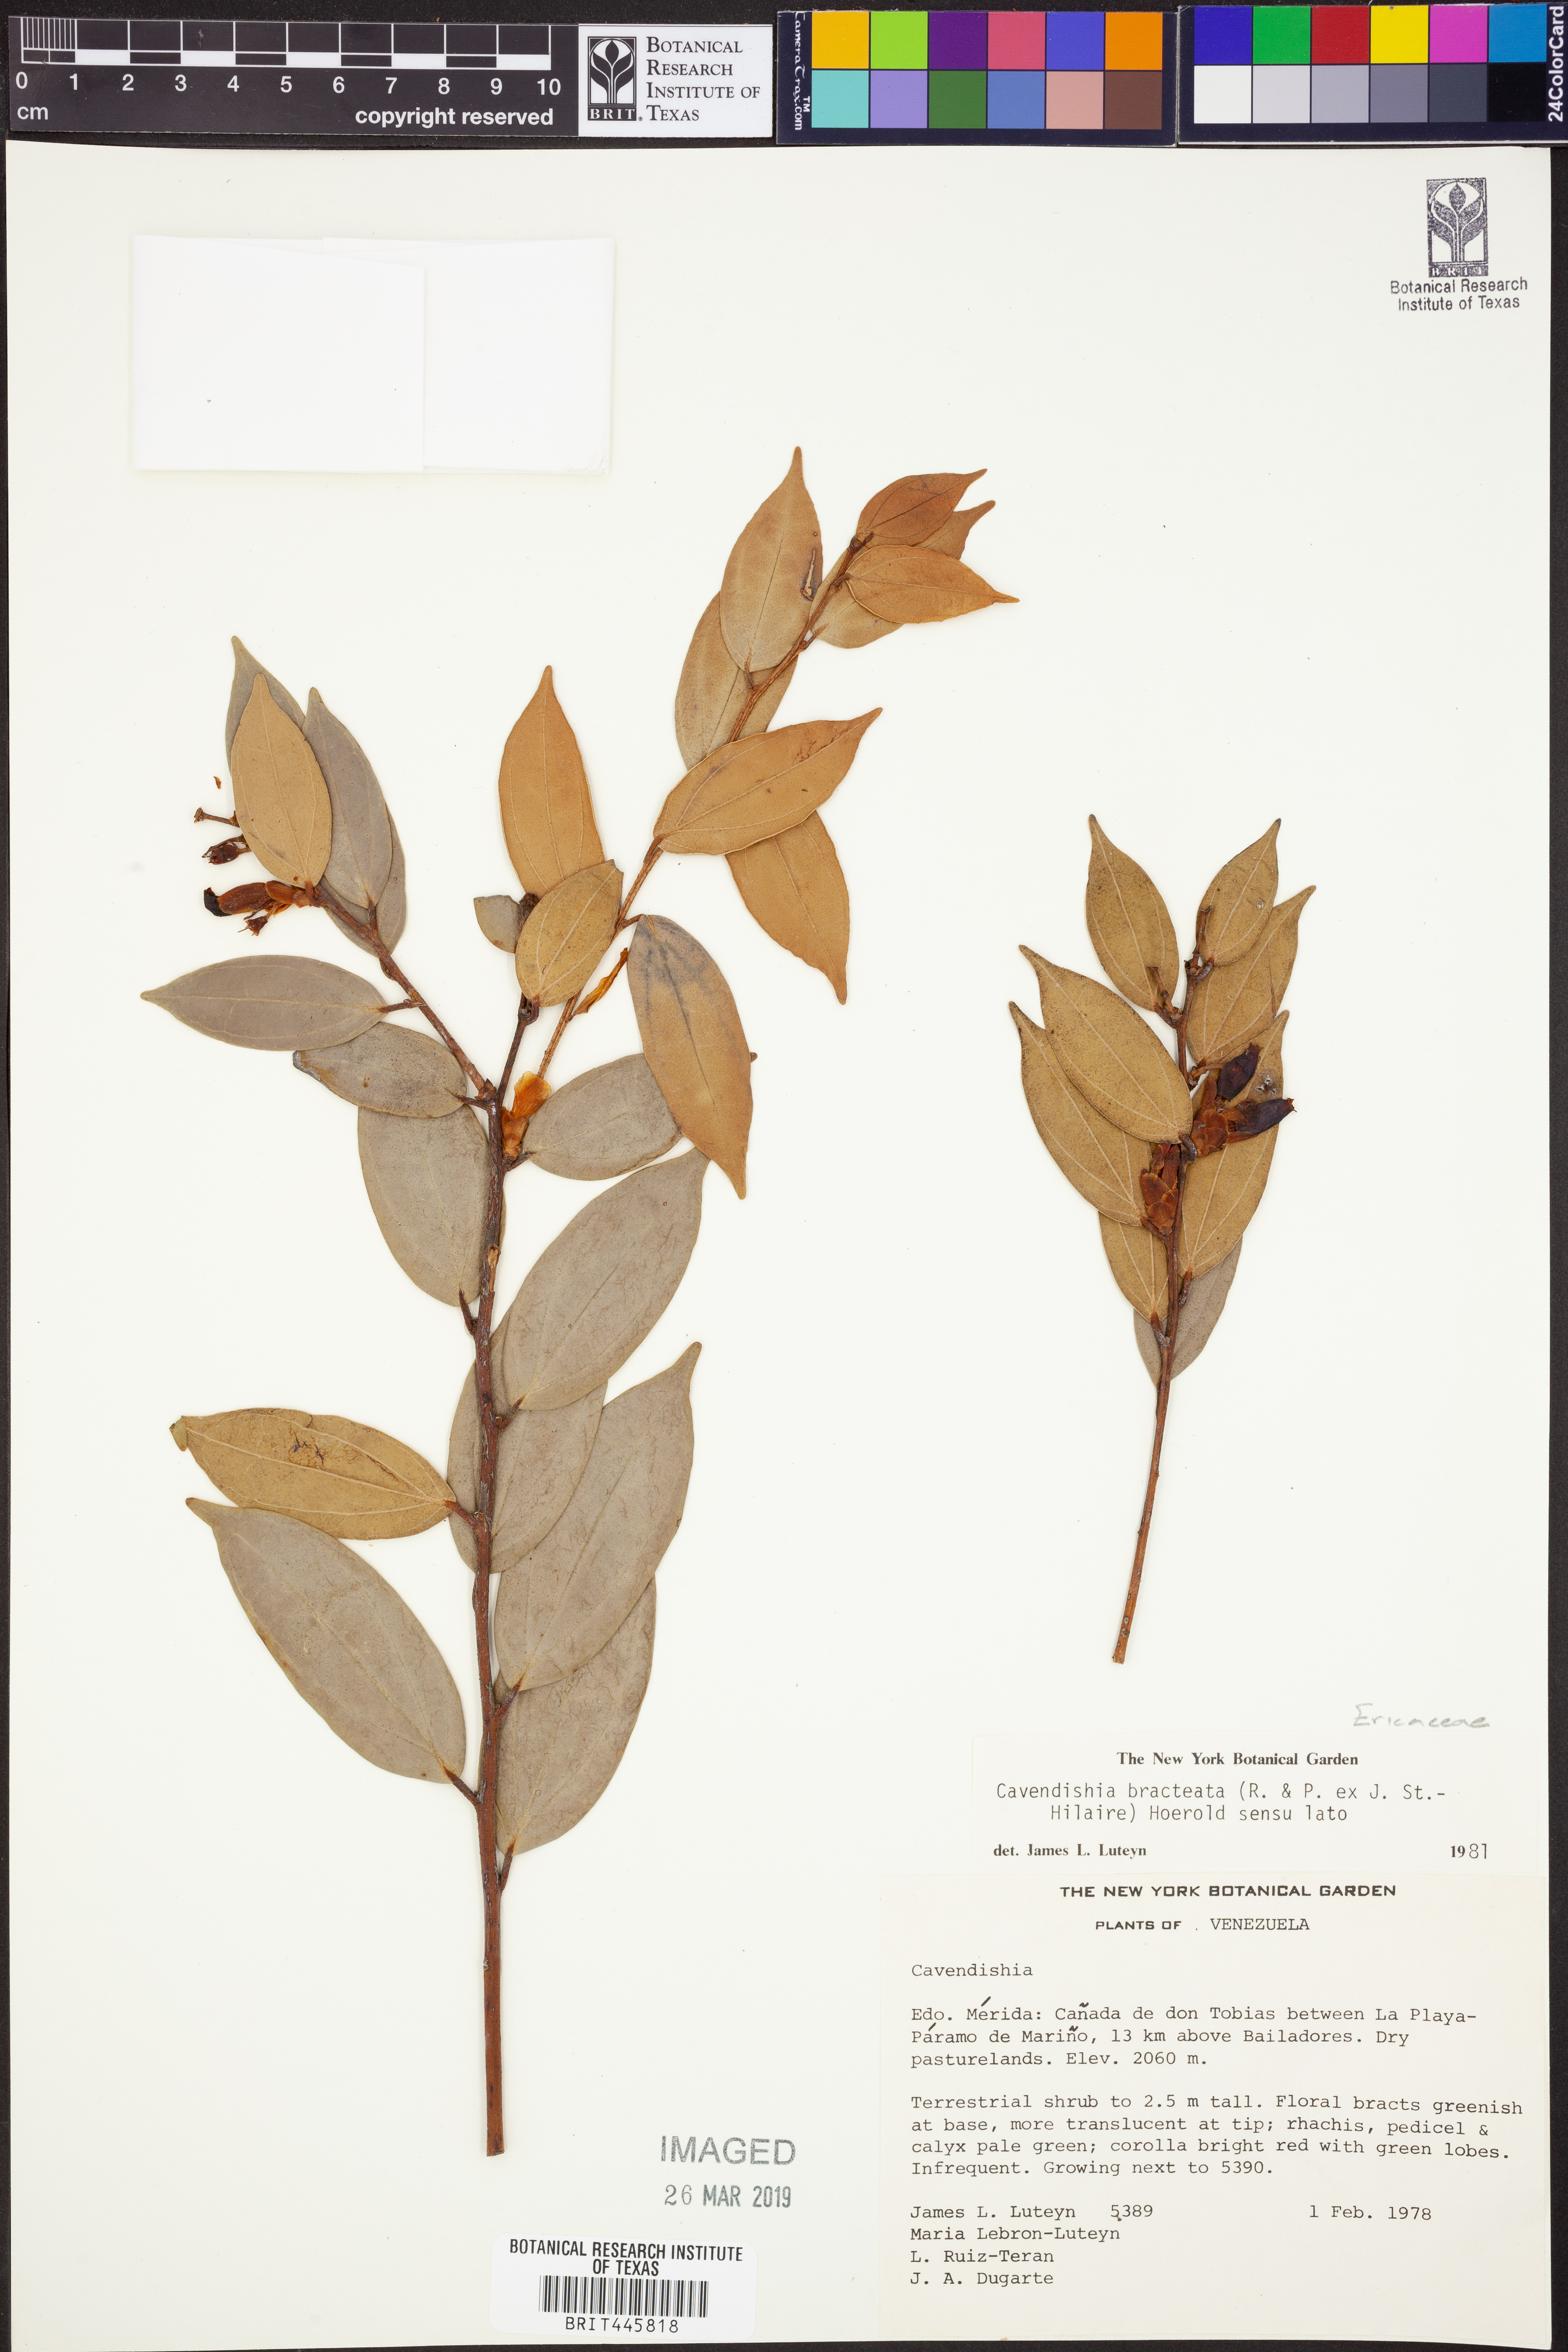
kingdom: Plantae
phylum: Tracheophyta
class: Magnoliopsida
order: Ericales
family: Ericaceae
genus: Cavendishia
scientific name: Cavendishia bracteata
